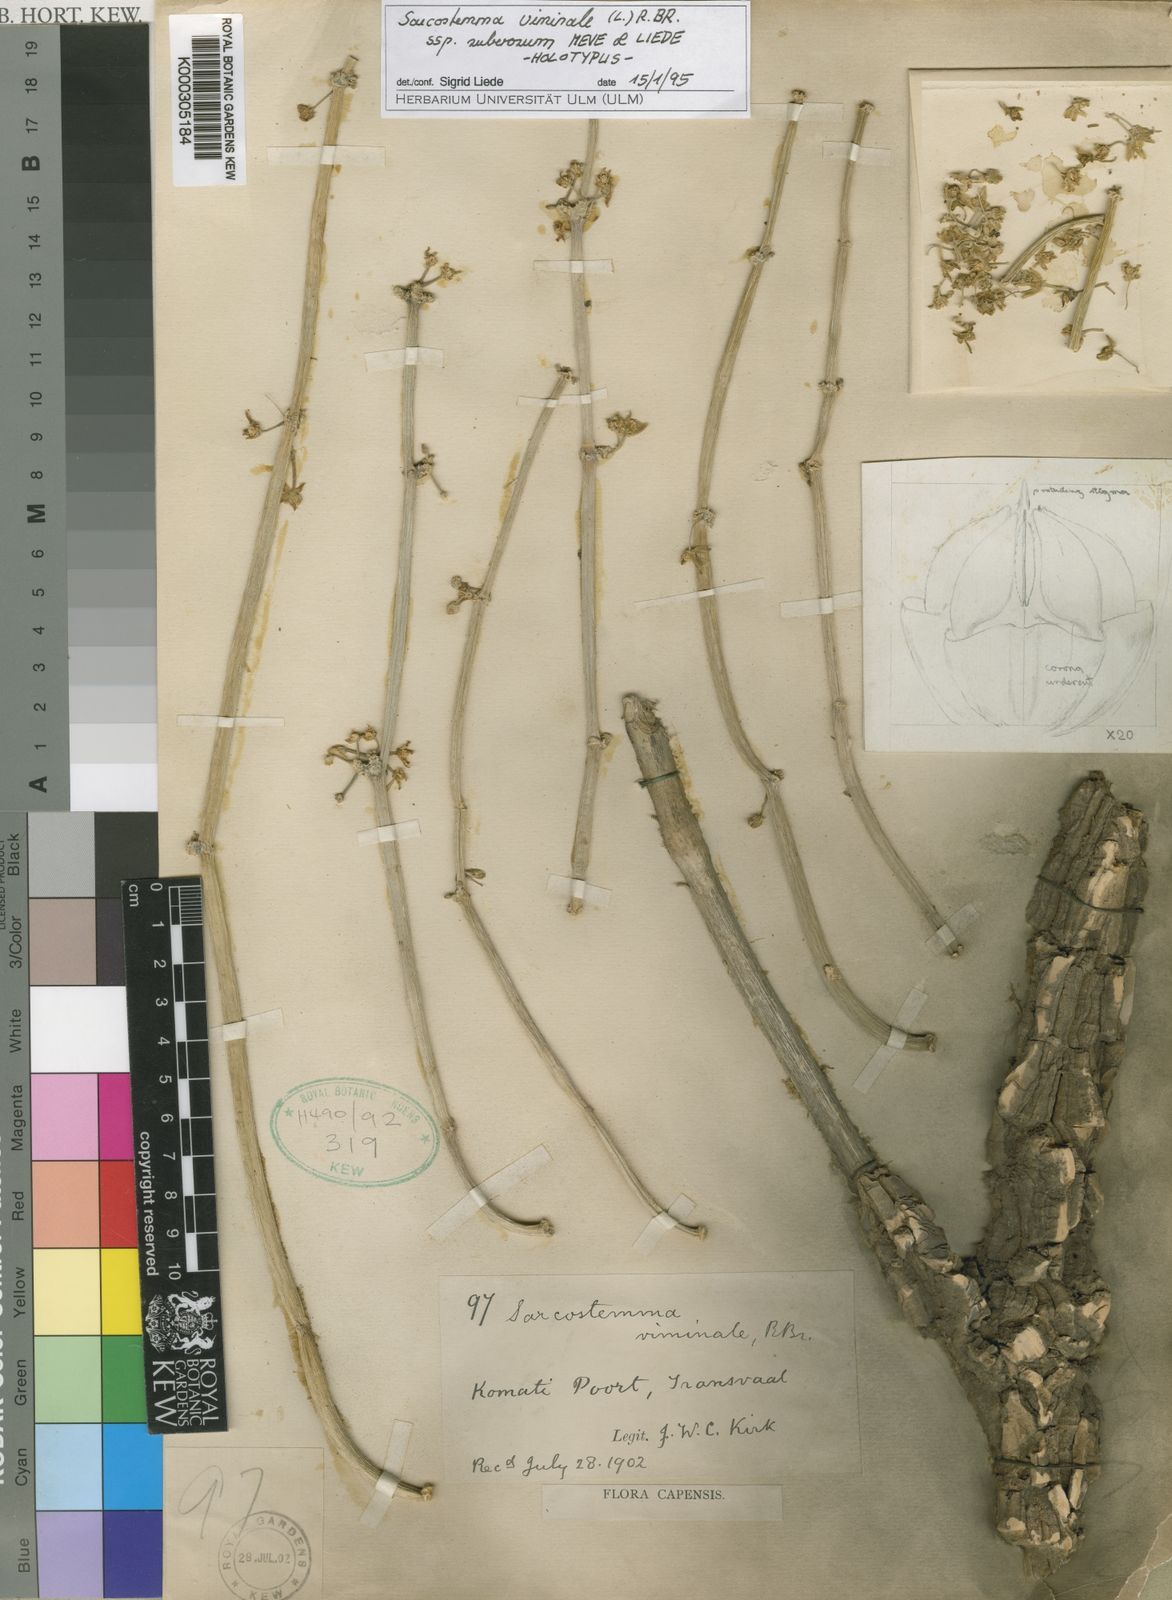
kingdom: Plantae
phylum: Tracheophyta
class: Magnoliopsida
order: Gentianales
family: Apocynaceae
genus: Cynanchum
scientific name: Cynanchum viminale
